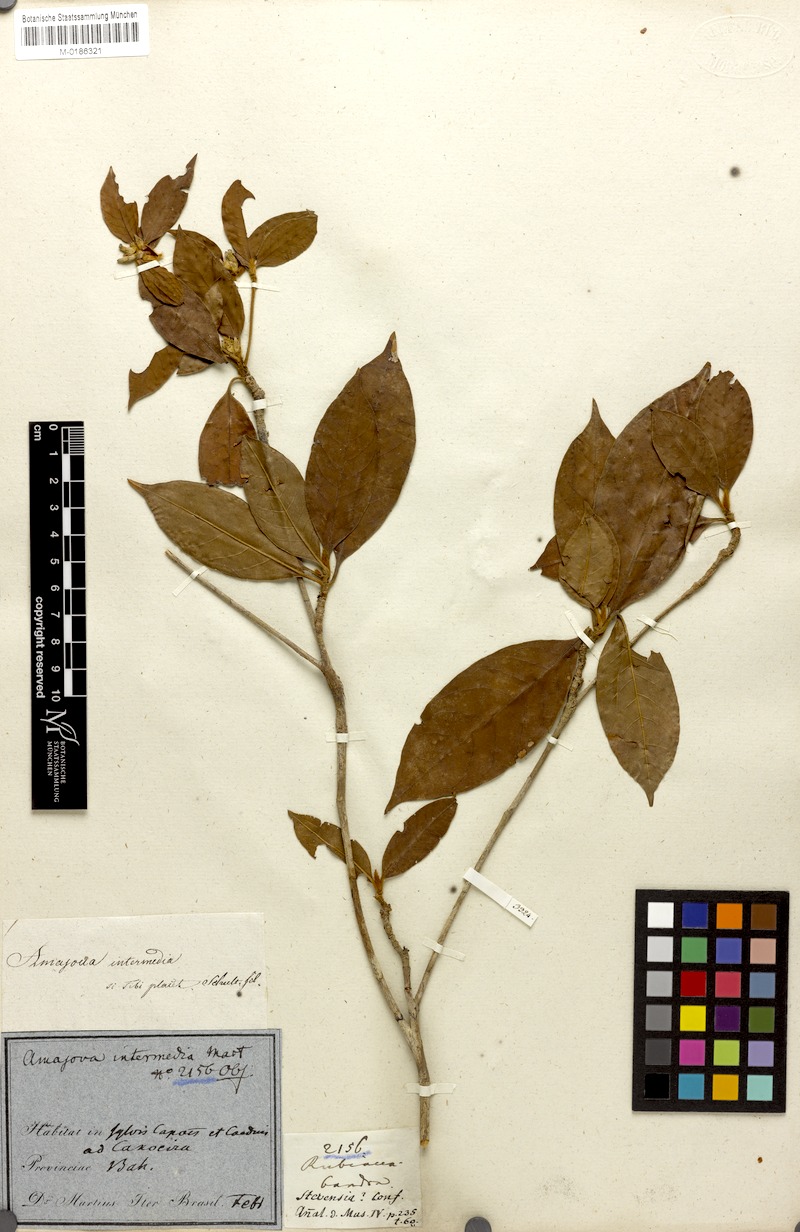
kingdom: Plantae
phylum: Tracheophyta
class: Magnoliopsida
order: Gentianales
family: Rubiaceae
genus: Amaioua
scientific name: Amaioua intermedia
